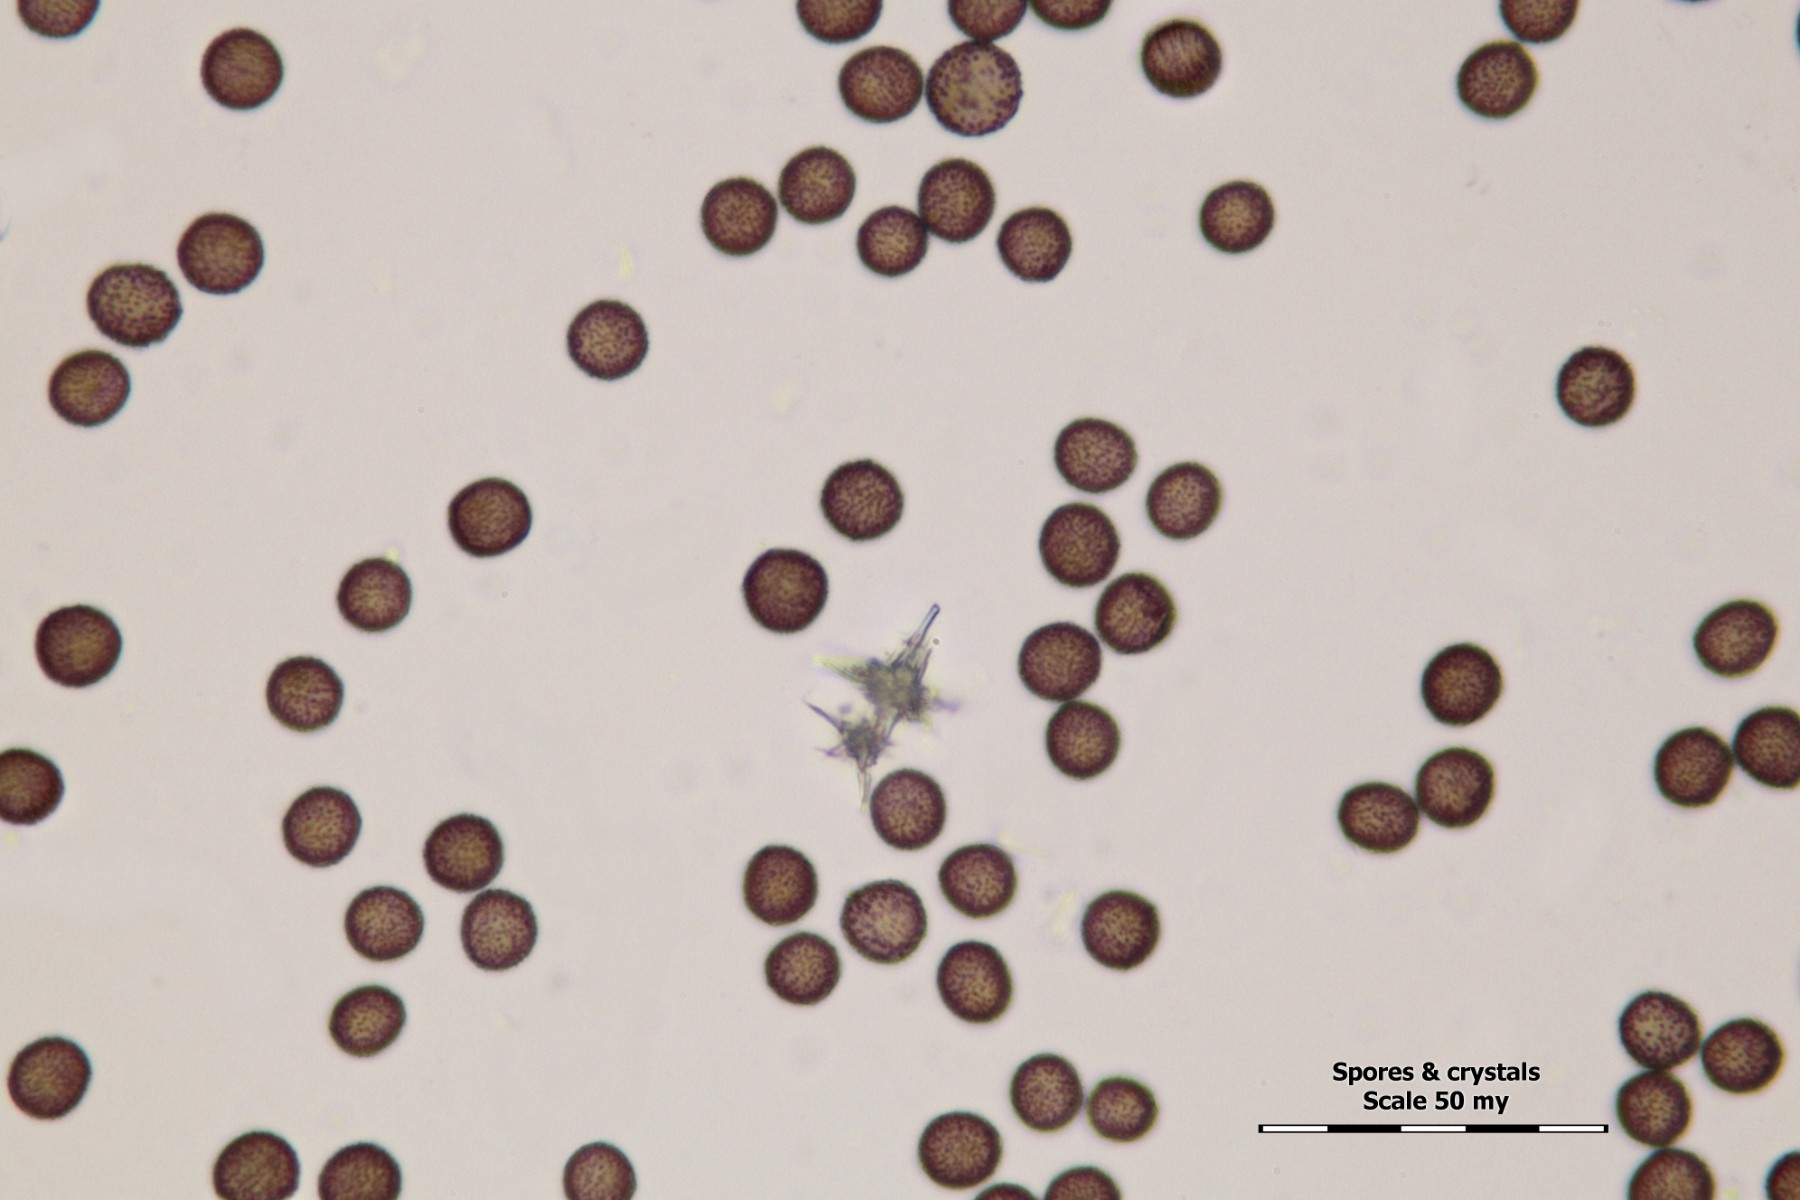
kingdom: Protozoa
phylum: Mycetozoa
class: Myxomycetes
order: Physarales
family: Didymiaceae
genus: Didymium
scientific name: Didymium melanospermum
